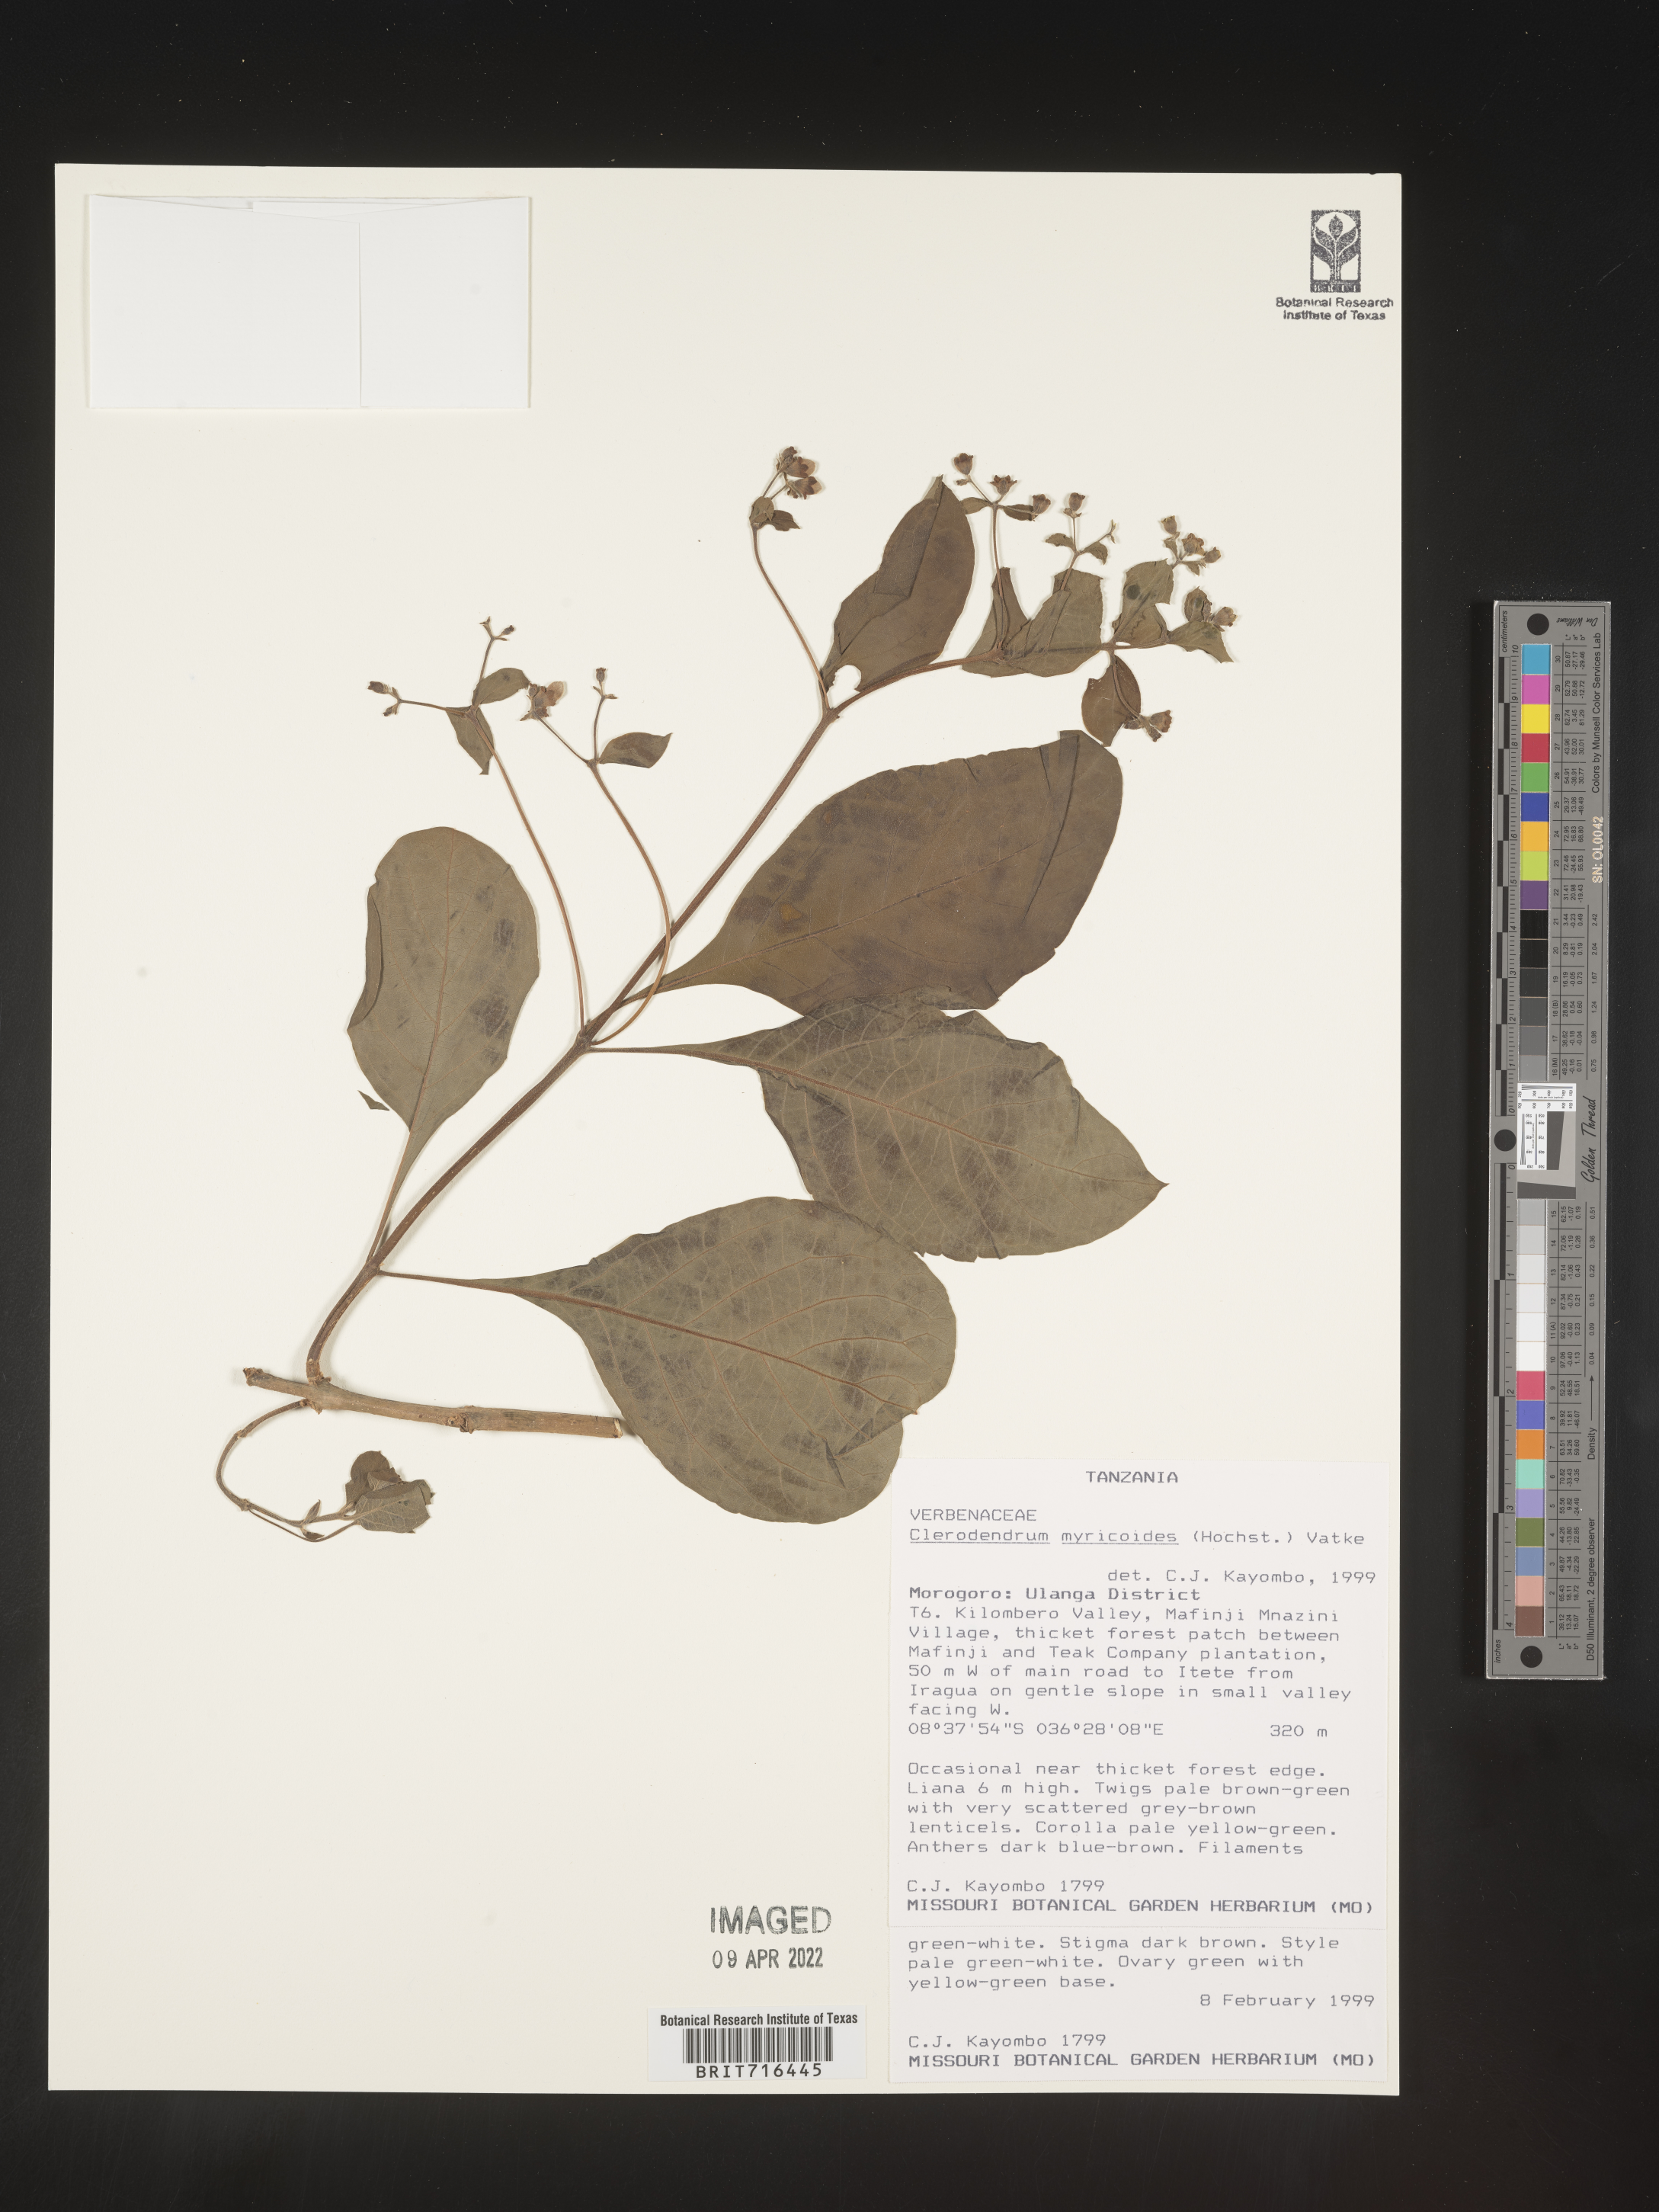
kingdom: Plantae
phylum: Tracheophyta
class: Magnoliopsida
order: Lamiales
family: Lamiaceae
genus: Clerodendrum
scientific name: Clerodendrum
